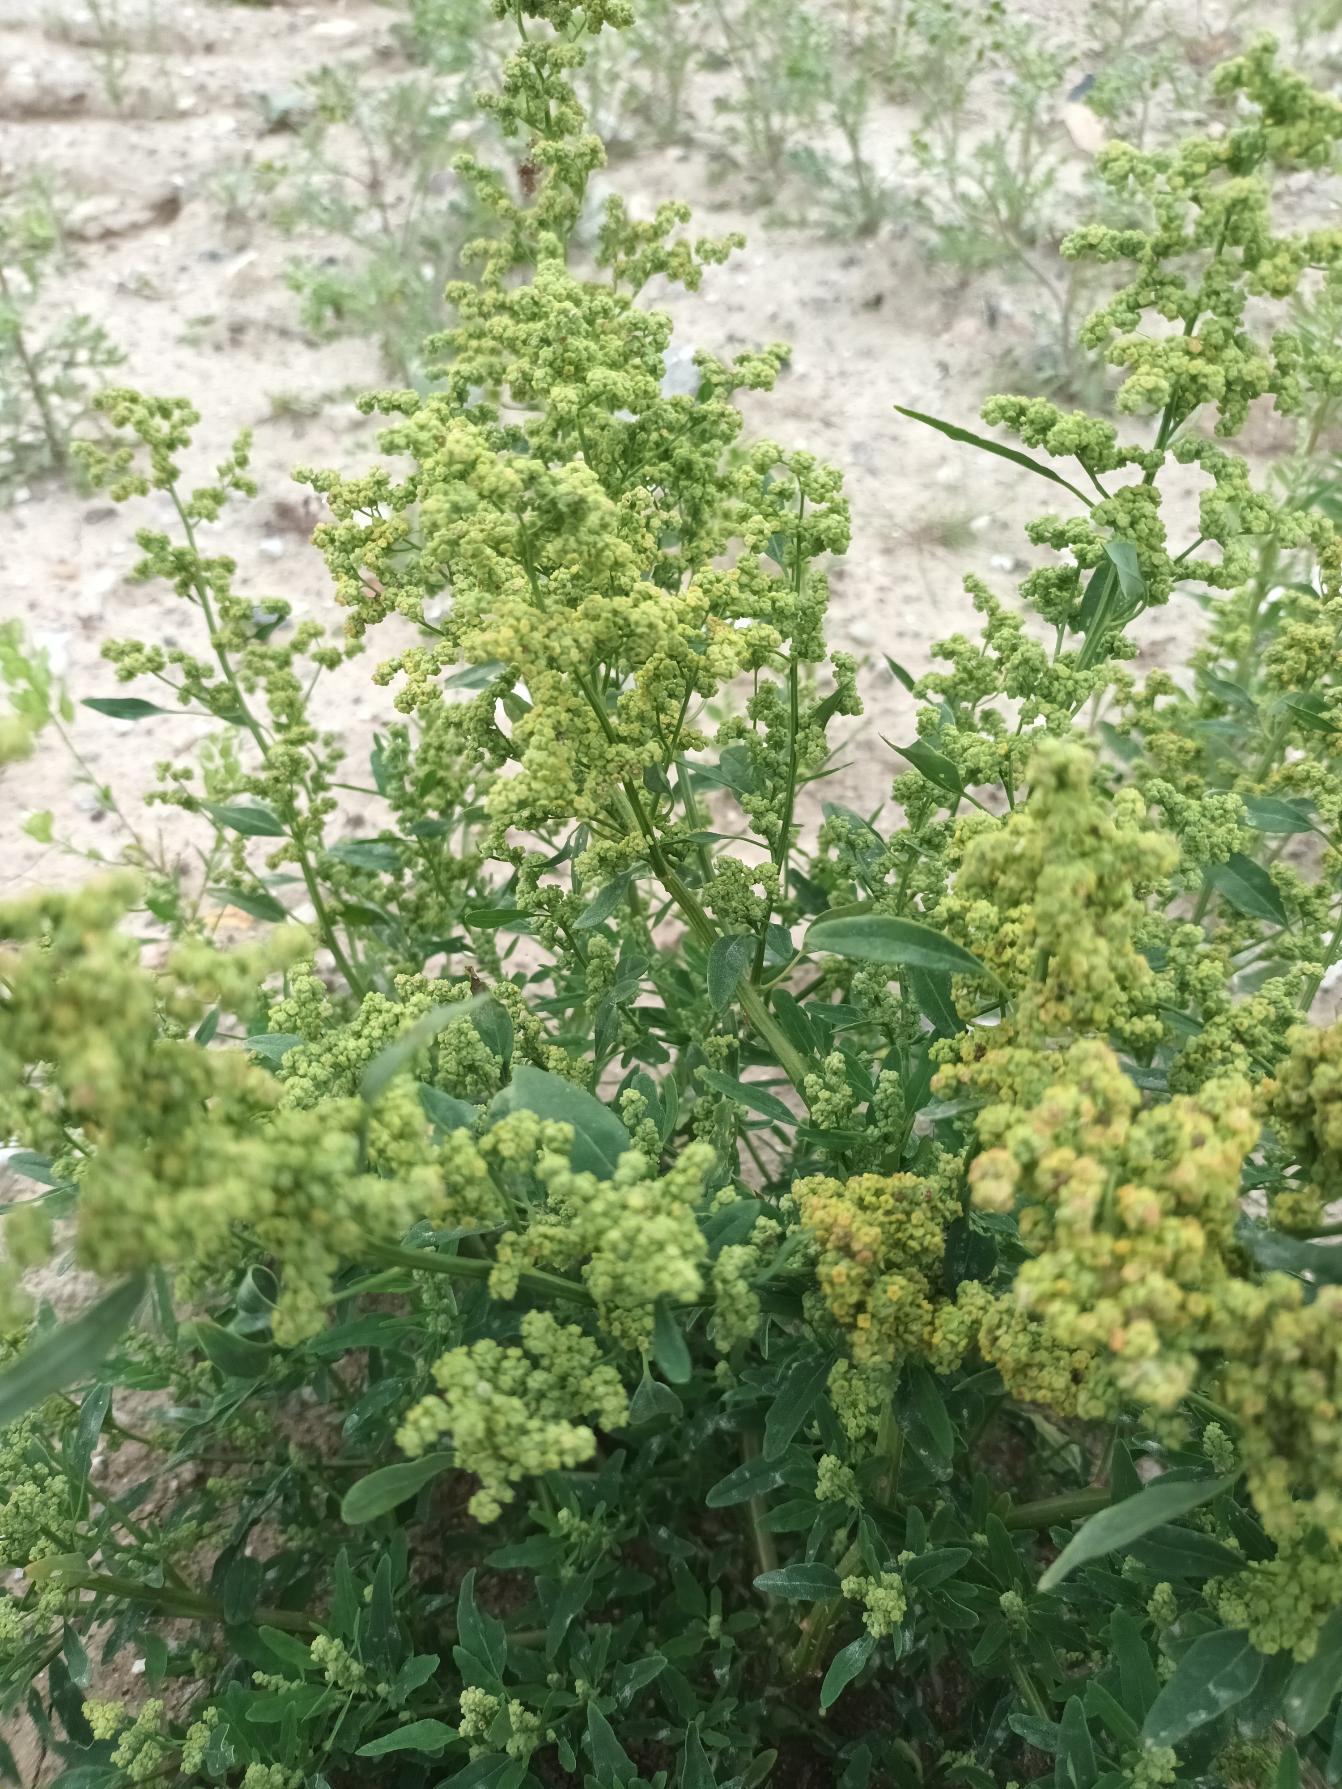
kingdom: Plantae
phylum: Tracheophyta
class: Magnoliopsida
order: Caryophyllales
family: Amaranthaceae
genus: Chenopodium
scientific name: Chenopodium pratericola
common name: Finbladet gåsefod
